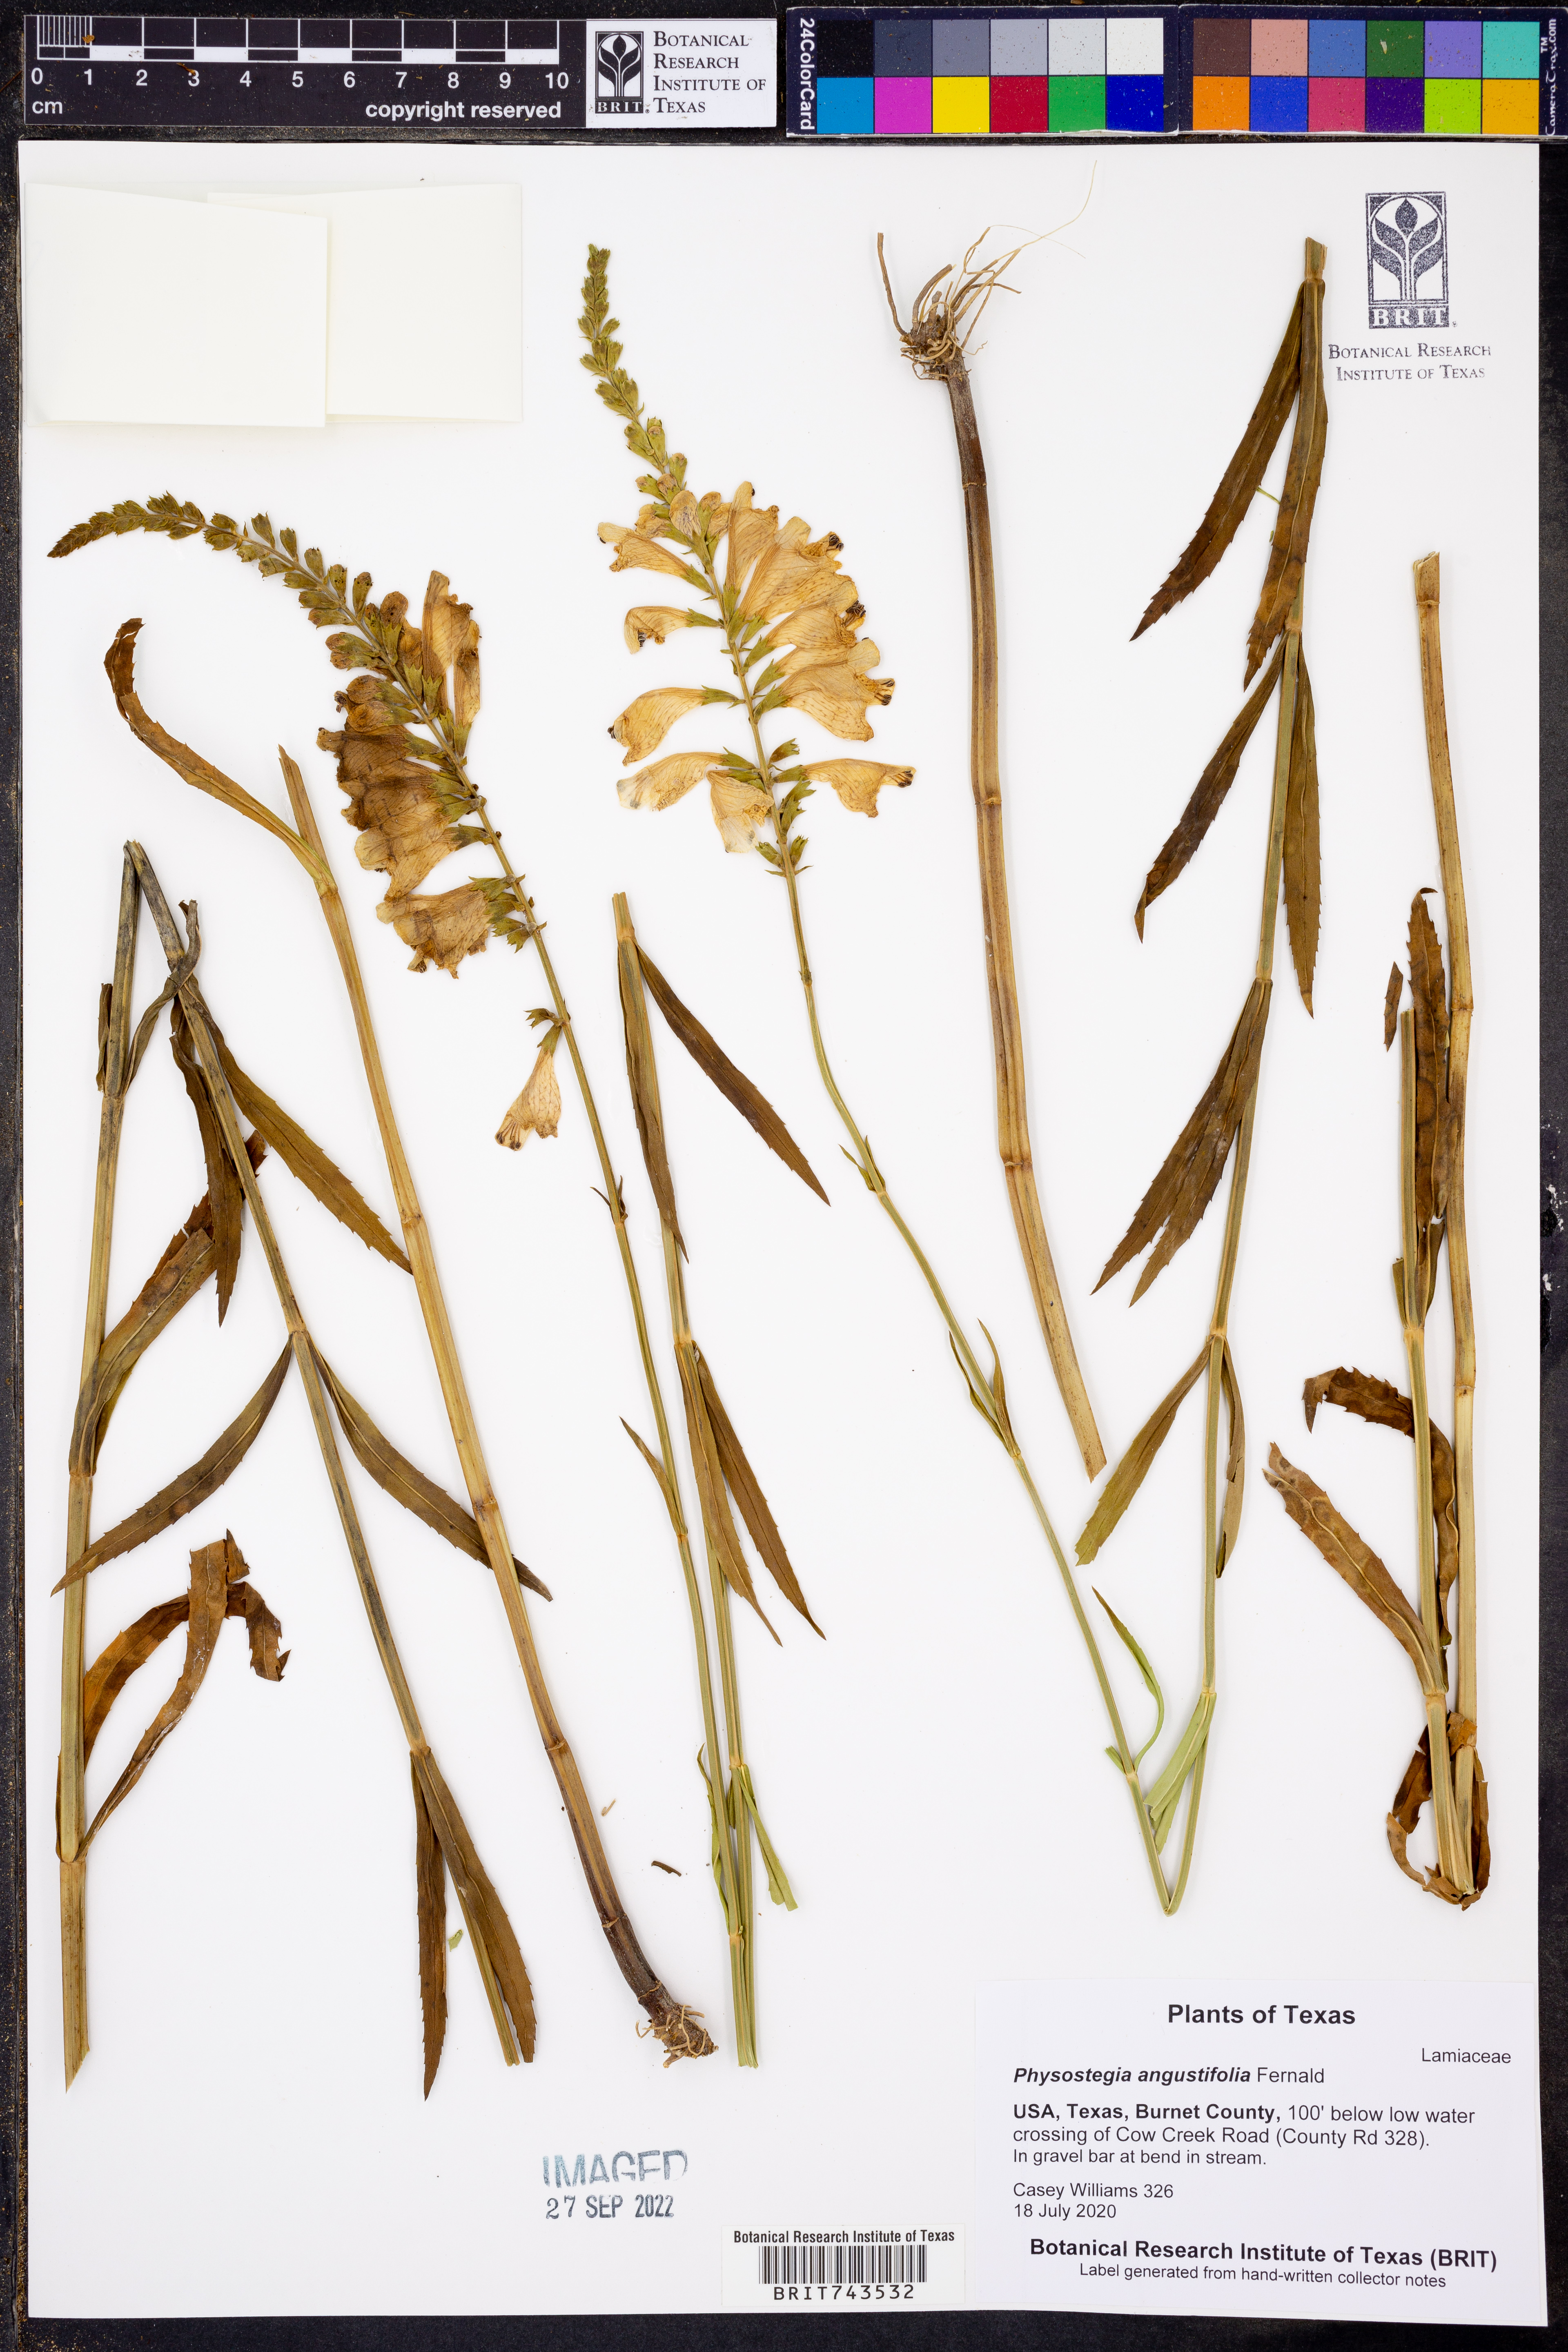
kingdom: Plantae
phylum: Tracheophyta
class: Magnoliopsida
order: Lamiales
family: Lamiaceae
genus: Physostegia
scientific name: Physostegia angustifolia
